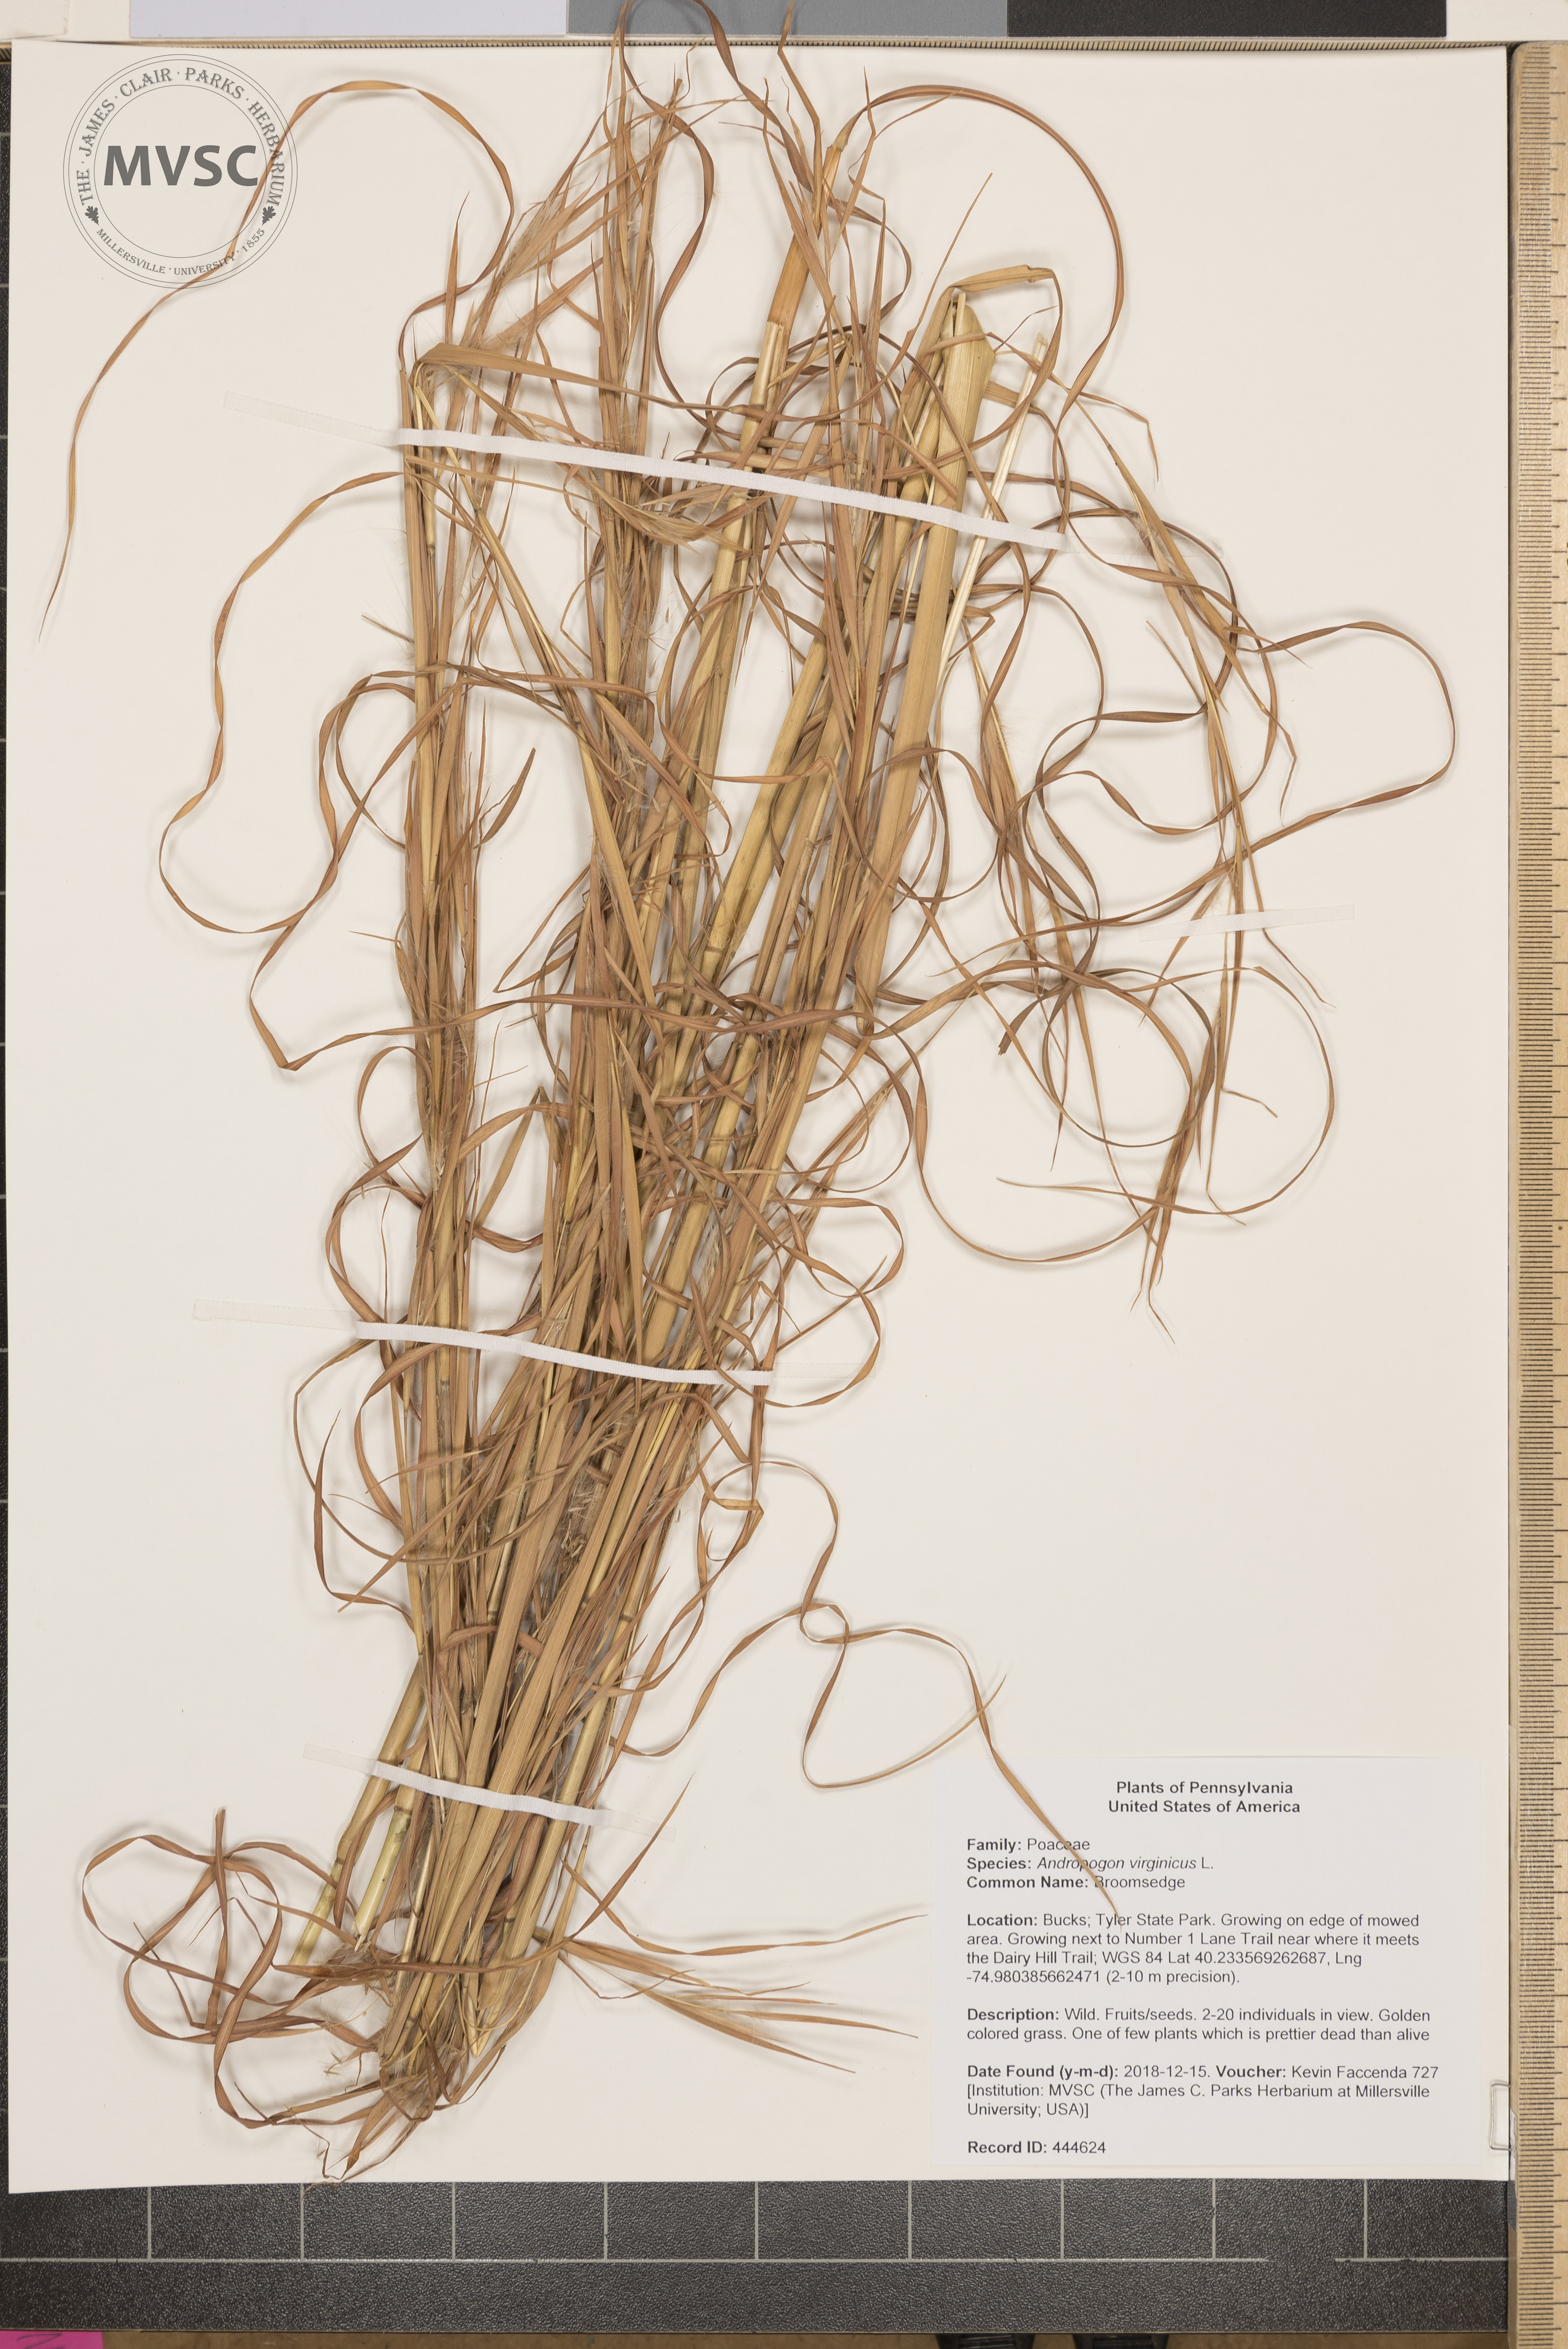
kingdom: Plantae
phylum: Tracheophyta
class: Liliopsida
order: Poales
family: Poaceae
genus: Andropogon
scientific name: Andropogon virginicus
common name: Broomsedge
